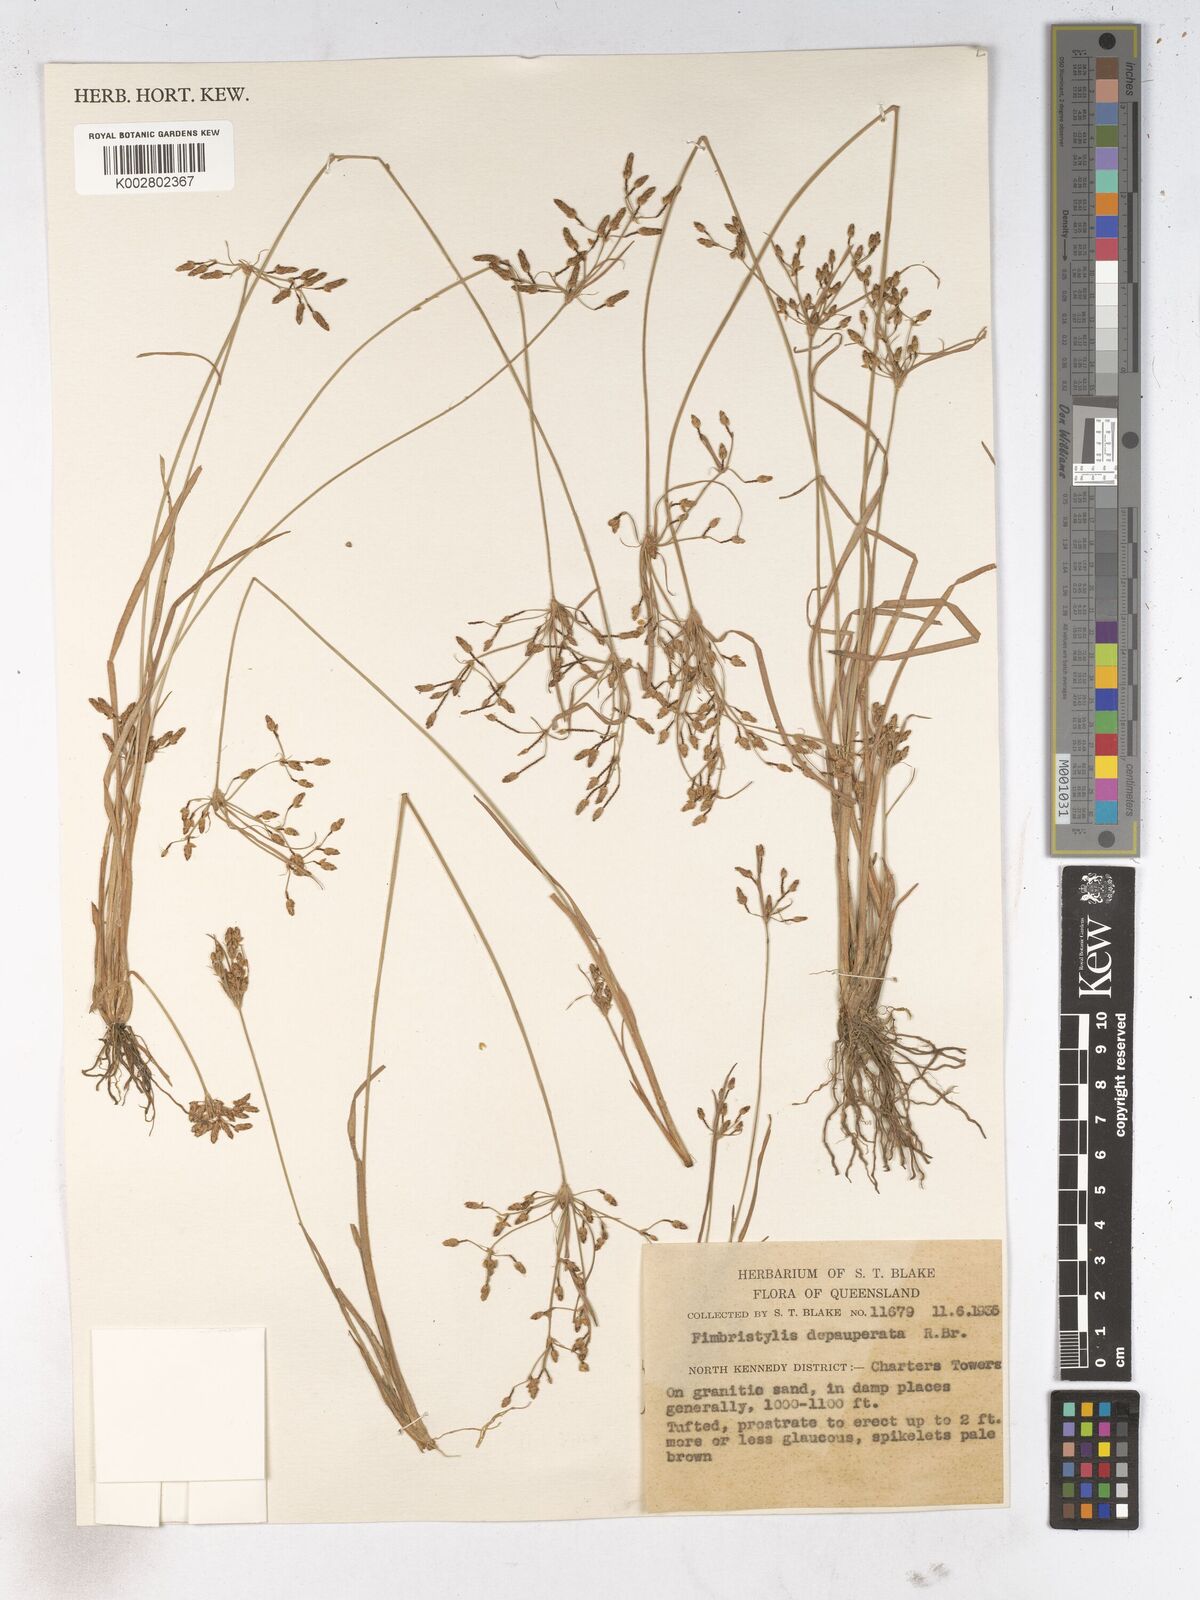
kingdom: Plantae
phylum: Tracheophyta
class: Liliopsida
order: Poales
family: Cyperaceae
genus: Fimbristylis
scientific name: Fimbristylis dichotoma
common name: Forked fimbry
